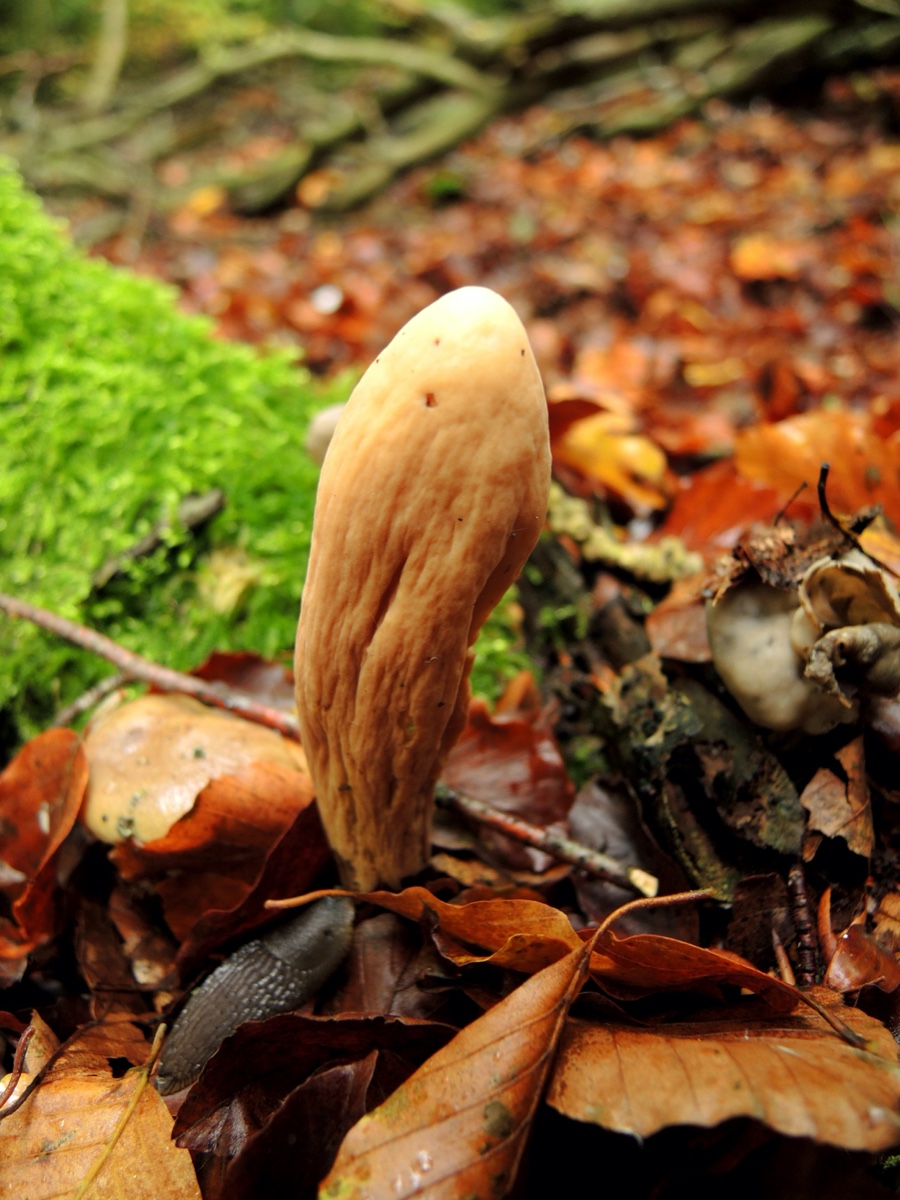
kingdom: Fungi
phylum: Basidiomycota
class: Agaricomycetes
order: Gomphales
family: Clavariadelphaceae
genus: Clavariadelphus
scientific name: Clavariadelphus pistillaris
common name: herkules-kæmpekølle
